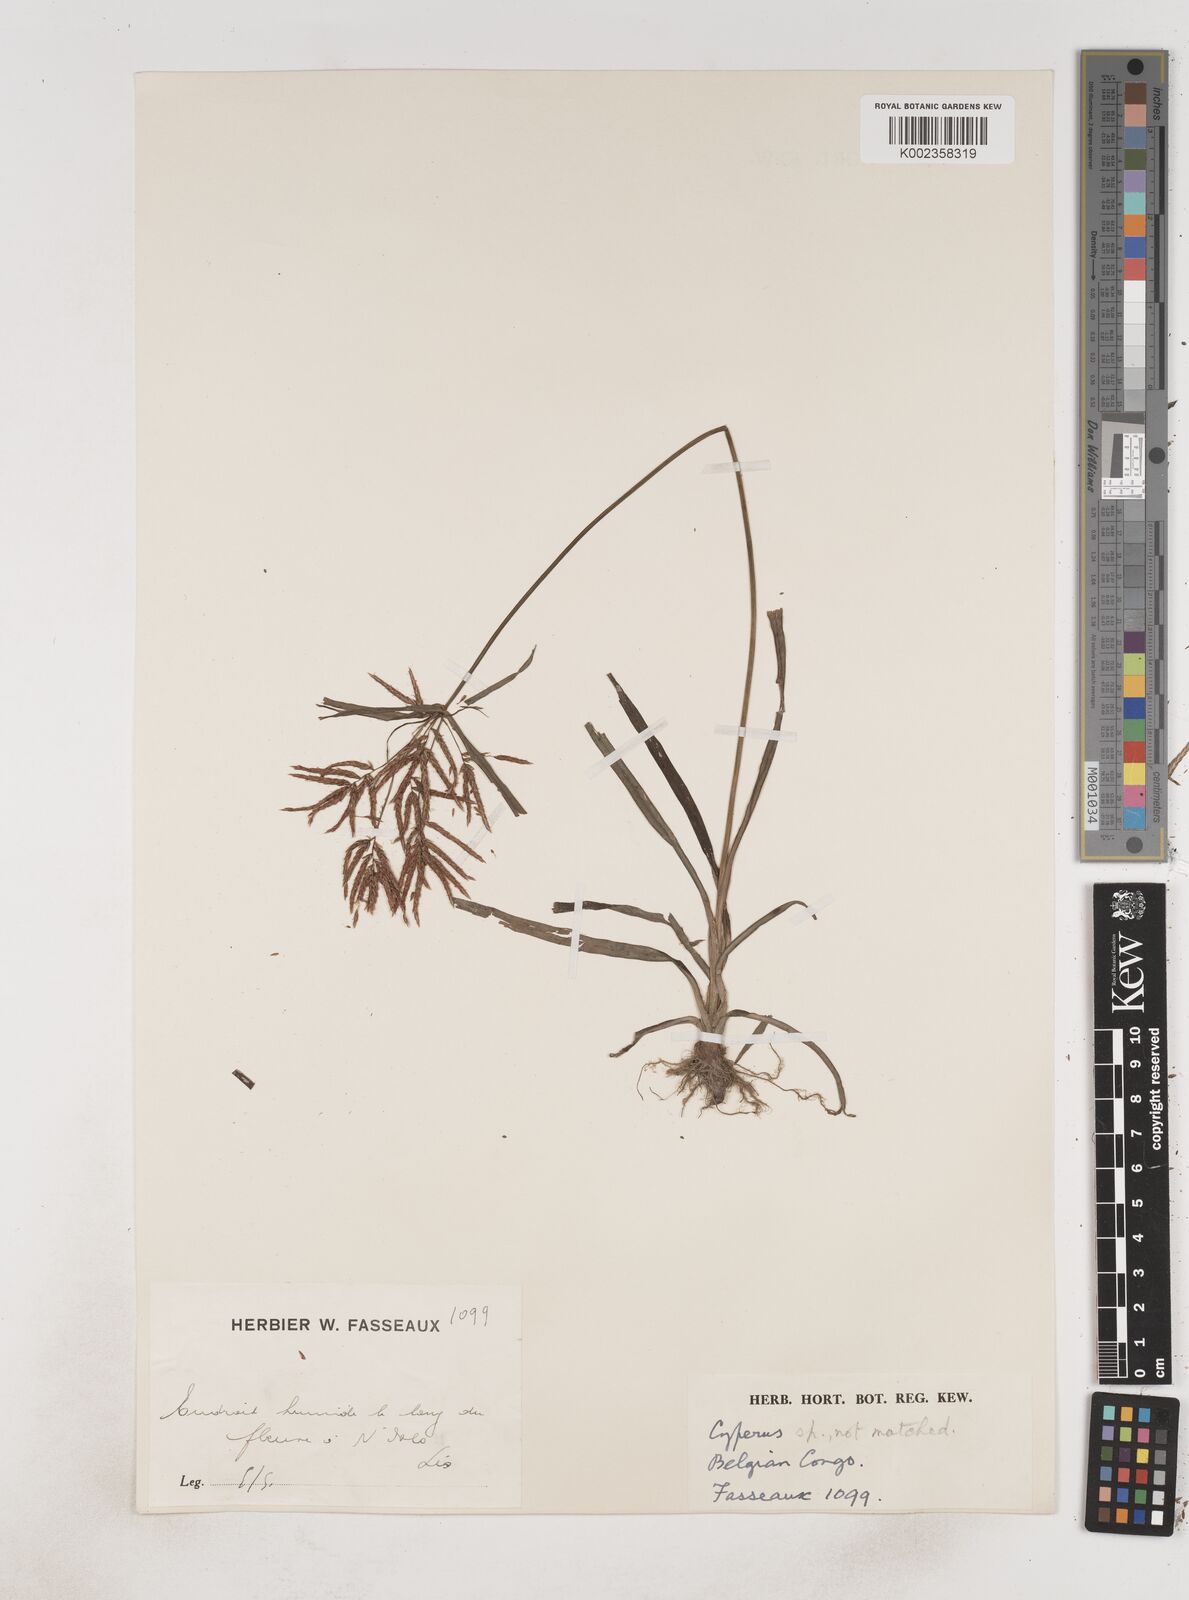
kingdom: Plantae
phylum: Tracheophyta
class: Liliopsida
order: Poales
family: Cyperaceae
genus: Cyperus
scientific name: Cyperus rotundus
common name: Nutgrass
